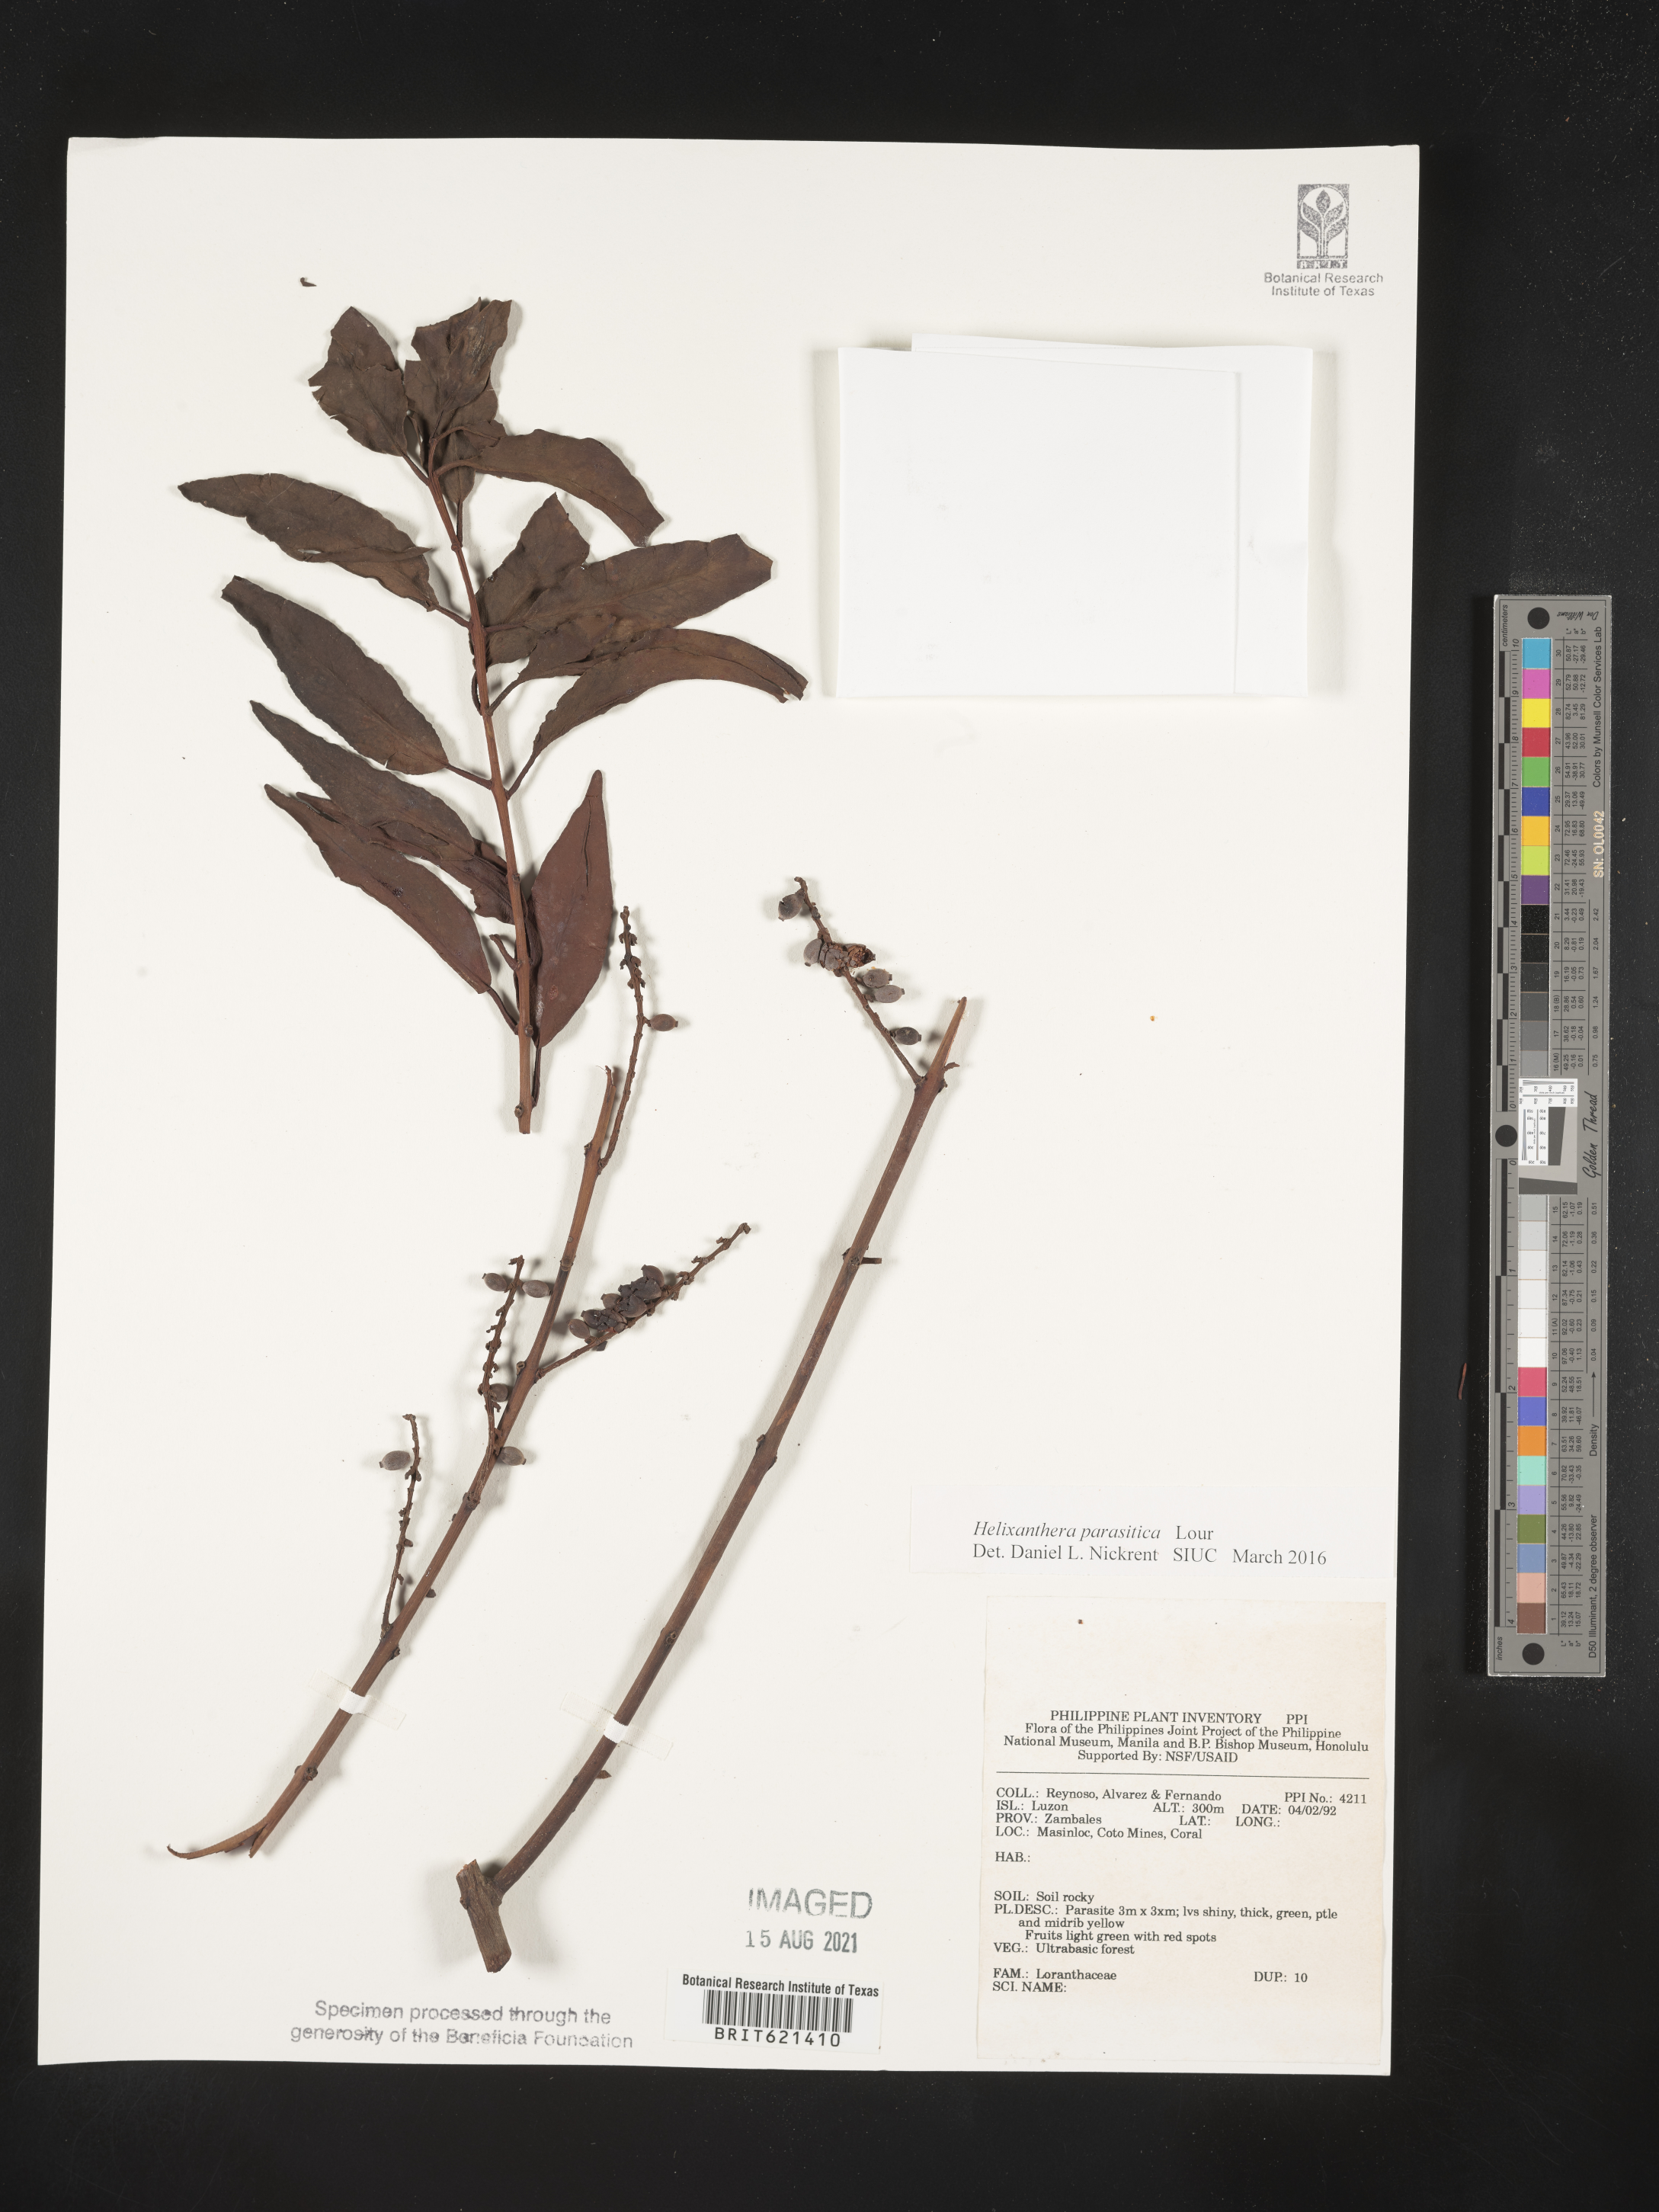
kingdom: Plantae
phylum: Tracheophyta
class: Magnoliopsida
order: Santalales
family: Loranthaceae
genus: Helixanthera
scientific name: Helixanthera parasitica
